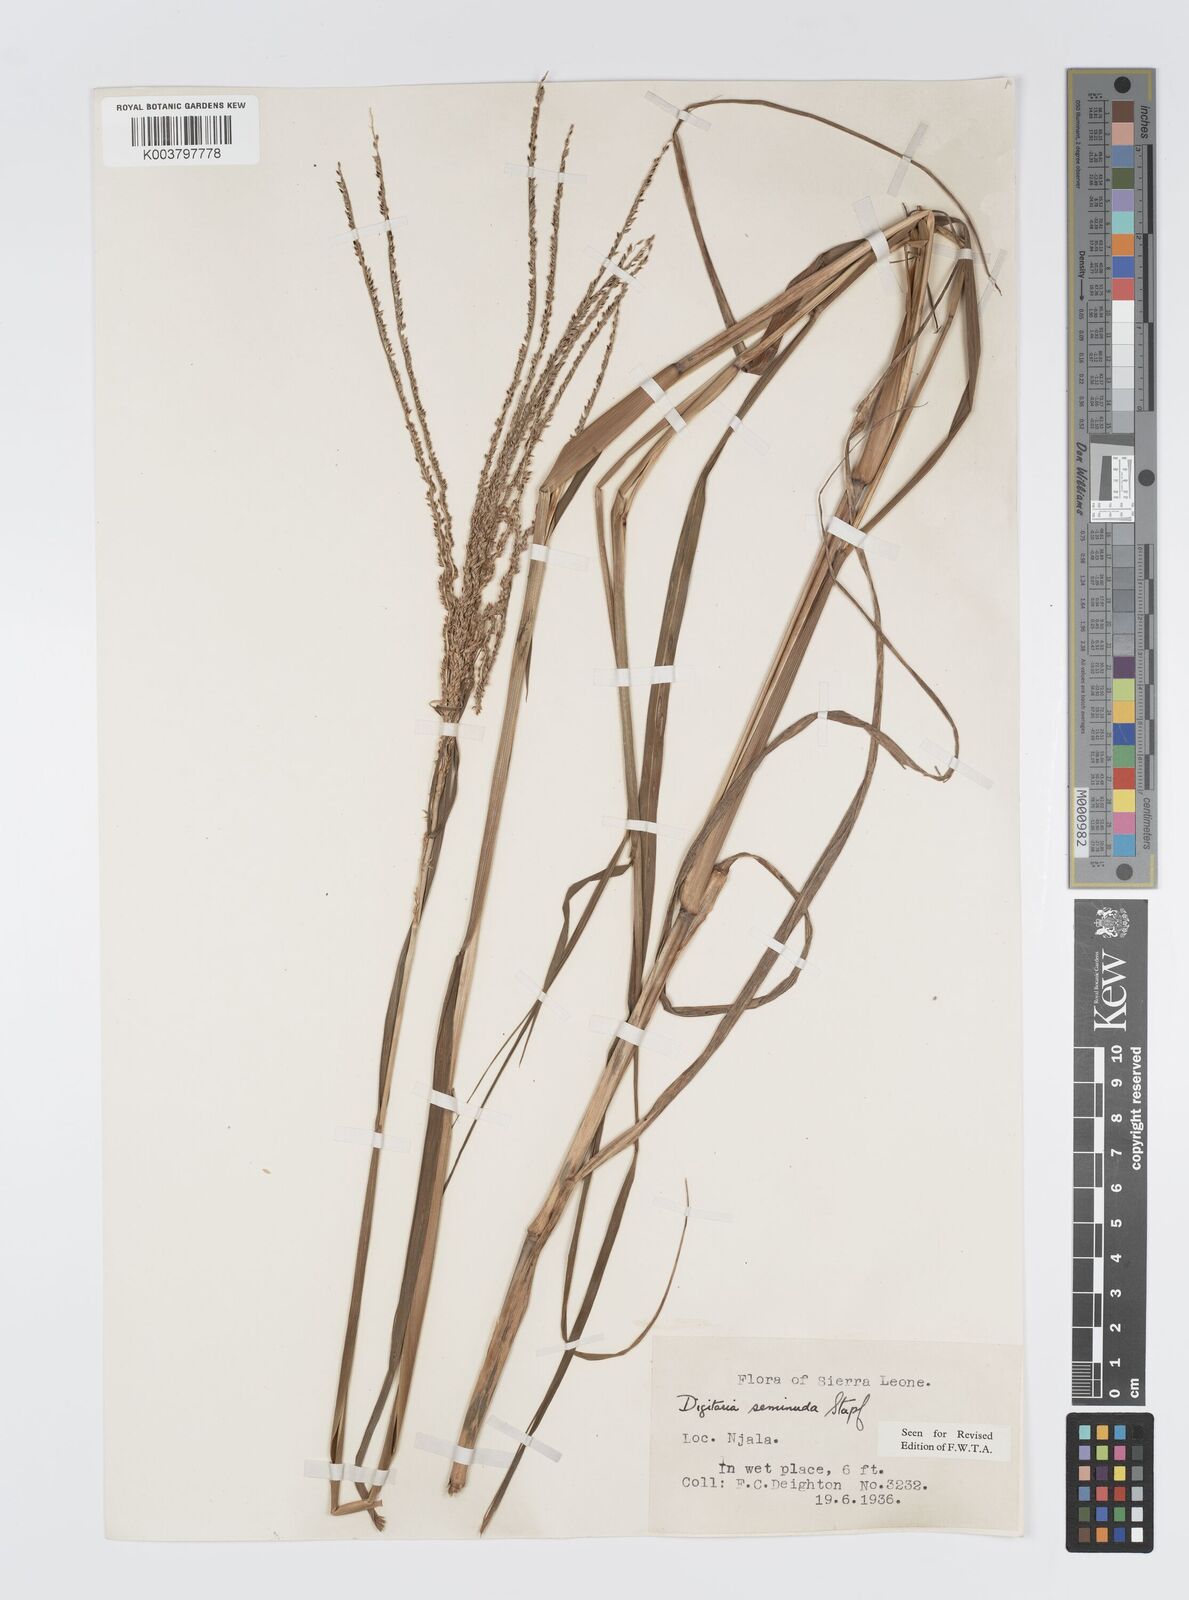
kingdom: Plantae
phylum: Tracheophyta
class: Liliopsida
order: Poales
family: Poaceae
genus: Digitaria
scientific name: Digitaria atrofusca
